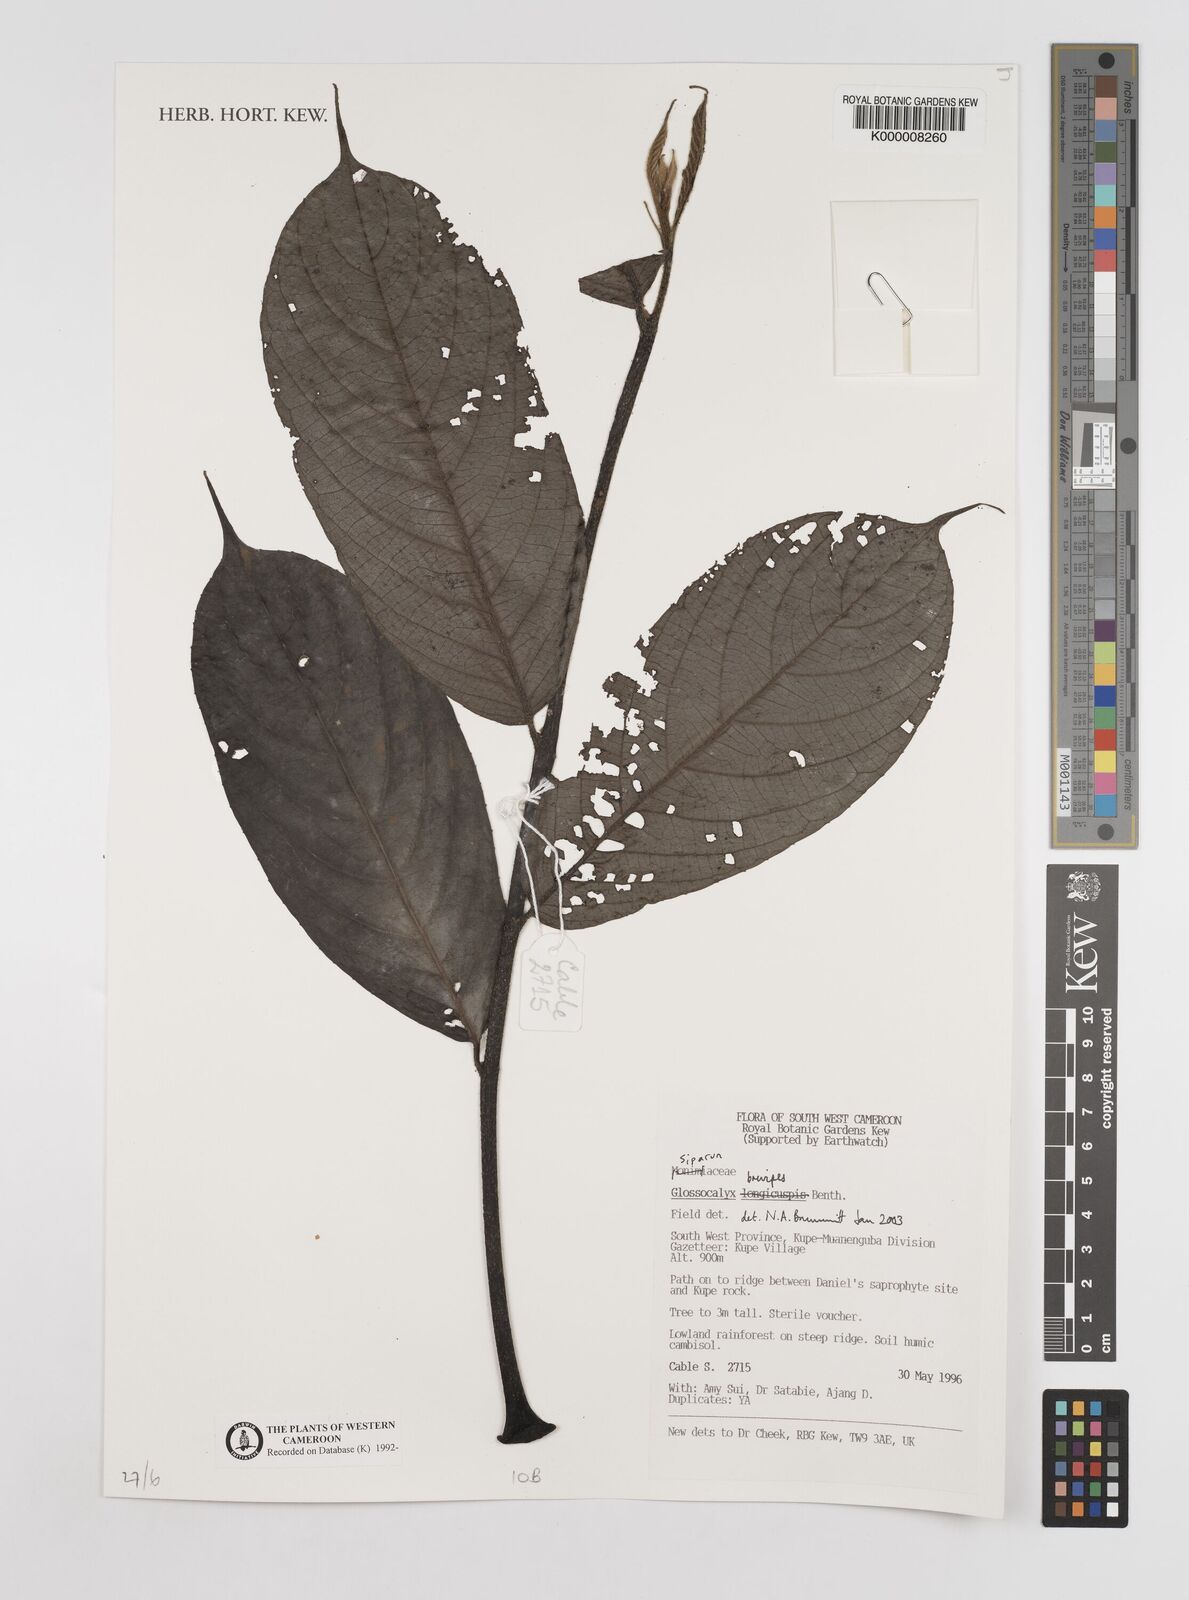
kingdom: Plantae
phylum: Tracheophyta
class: Magnoliopsida
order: Laurales
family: Siparunaceae
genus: Glossocalyx
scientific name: Glossocalyx brevipes
